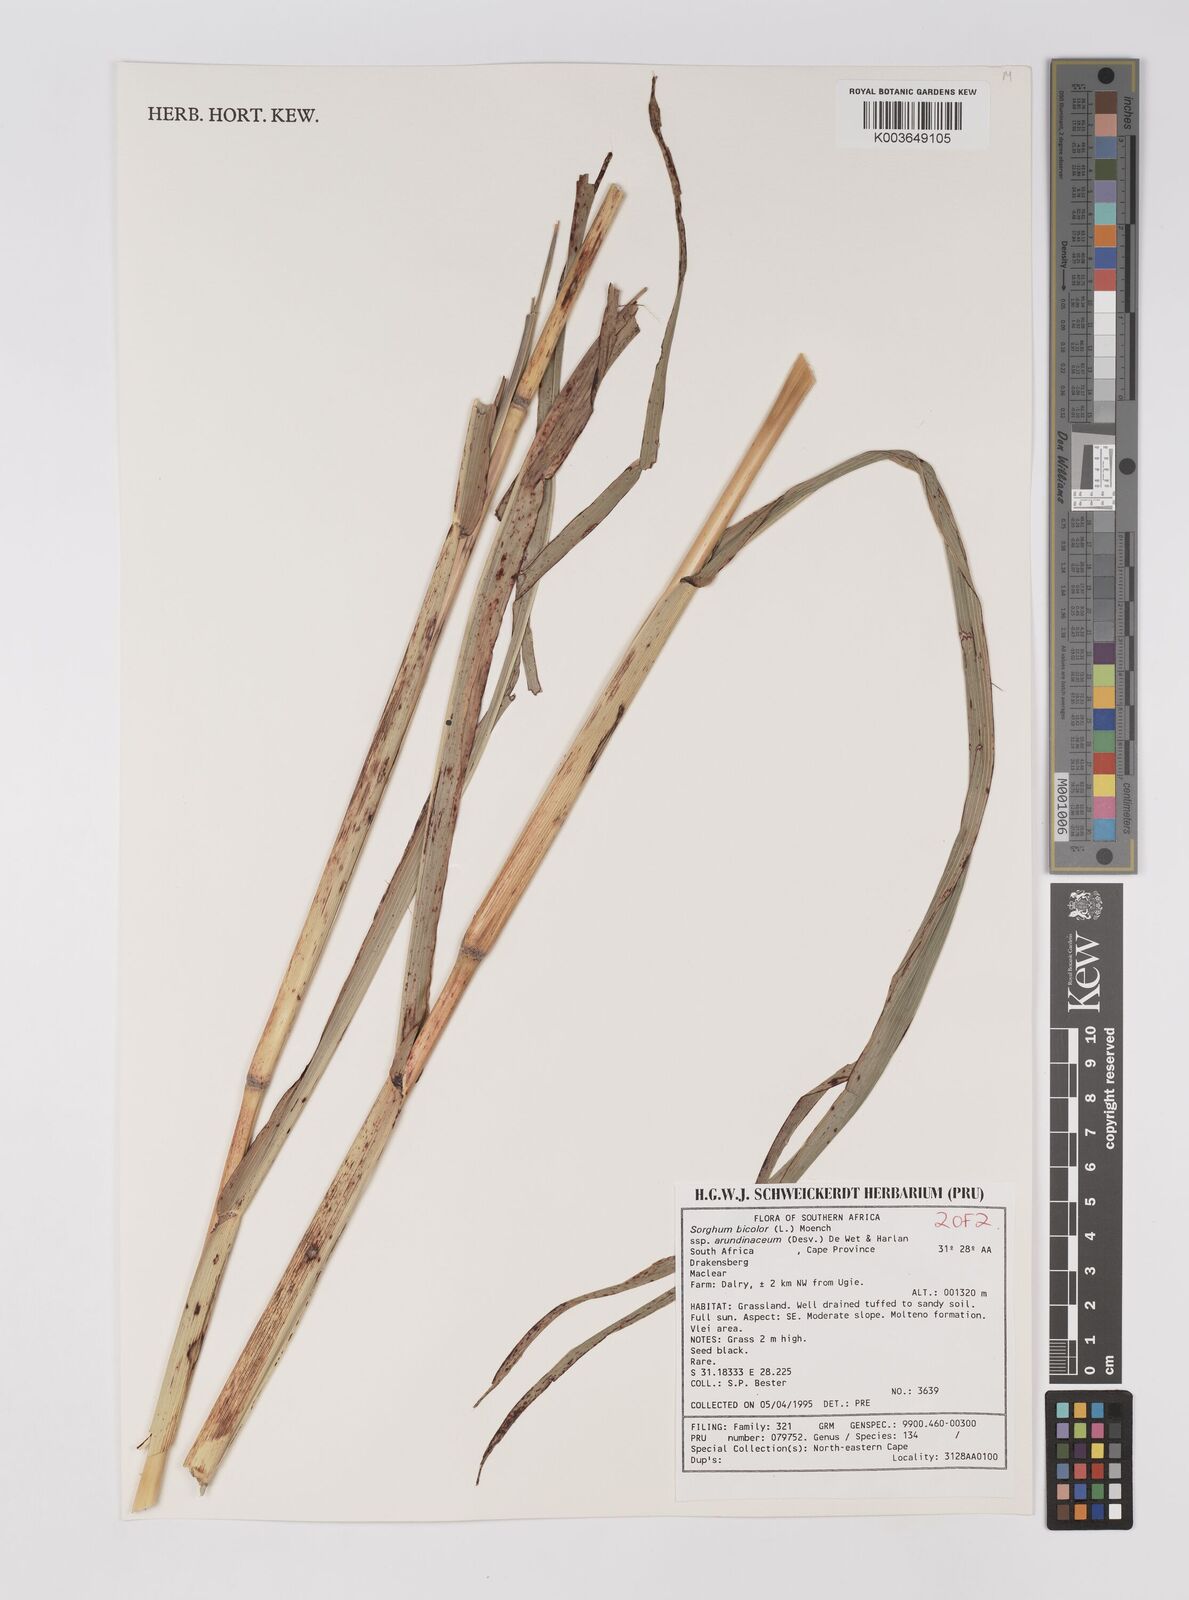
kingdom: Plantae
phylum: Tracheophyta
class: Liliopsida
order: Poales
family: Poaceae
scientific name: Poaceae
